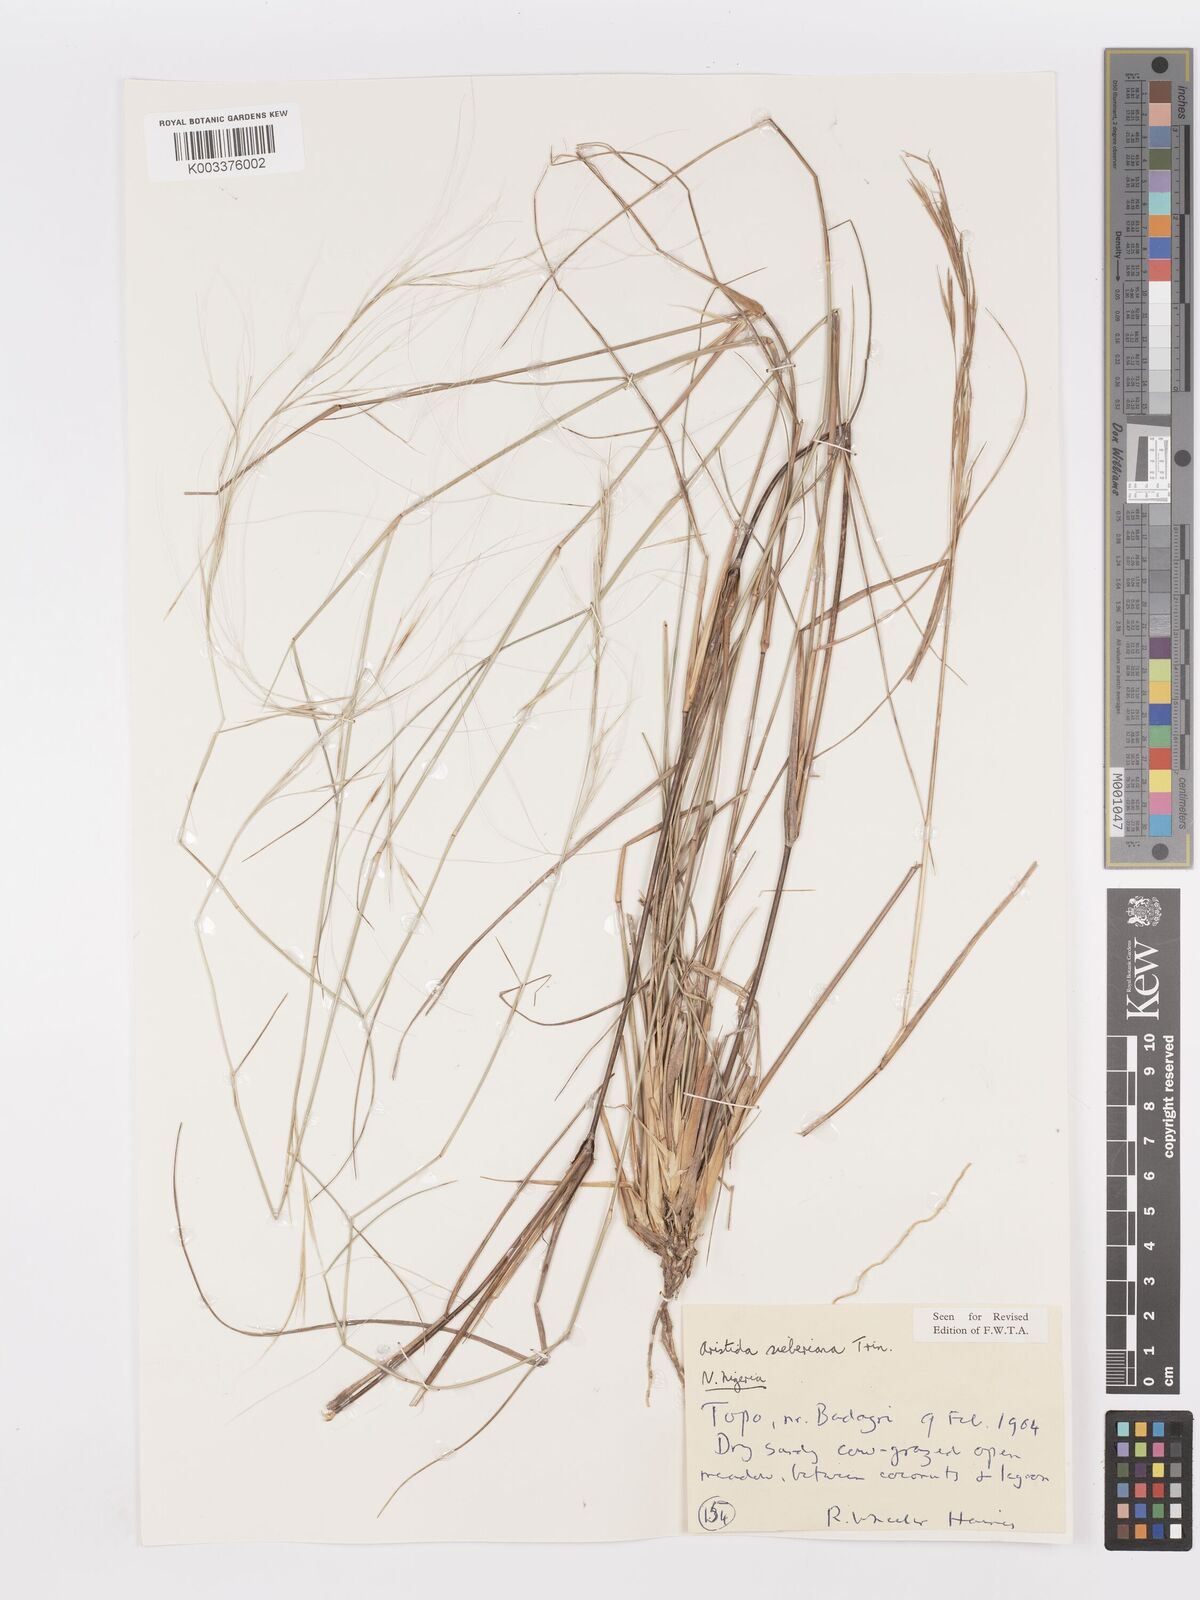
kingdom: Plantae
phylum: Tracheophyta
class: Liliopsida
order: Poales
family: Poaceae
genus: Aristida
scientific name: Aristida sieberiana
